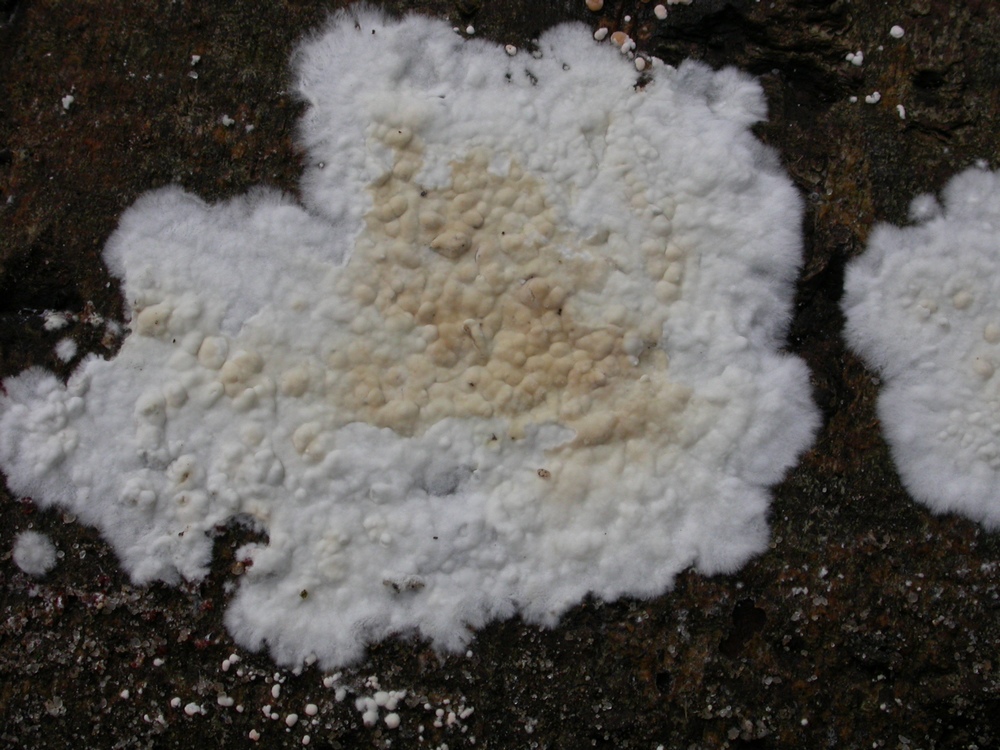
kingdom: Fungi
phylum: Basidiomycota
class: Agaricomycetes
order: Agaricales
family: Physalacriaceae
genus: Cylindrobasidium
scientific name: Cylindrobasidium evolvens
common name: sprækkehinde
